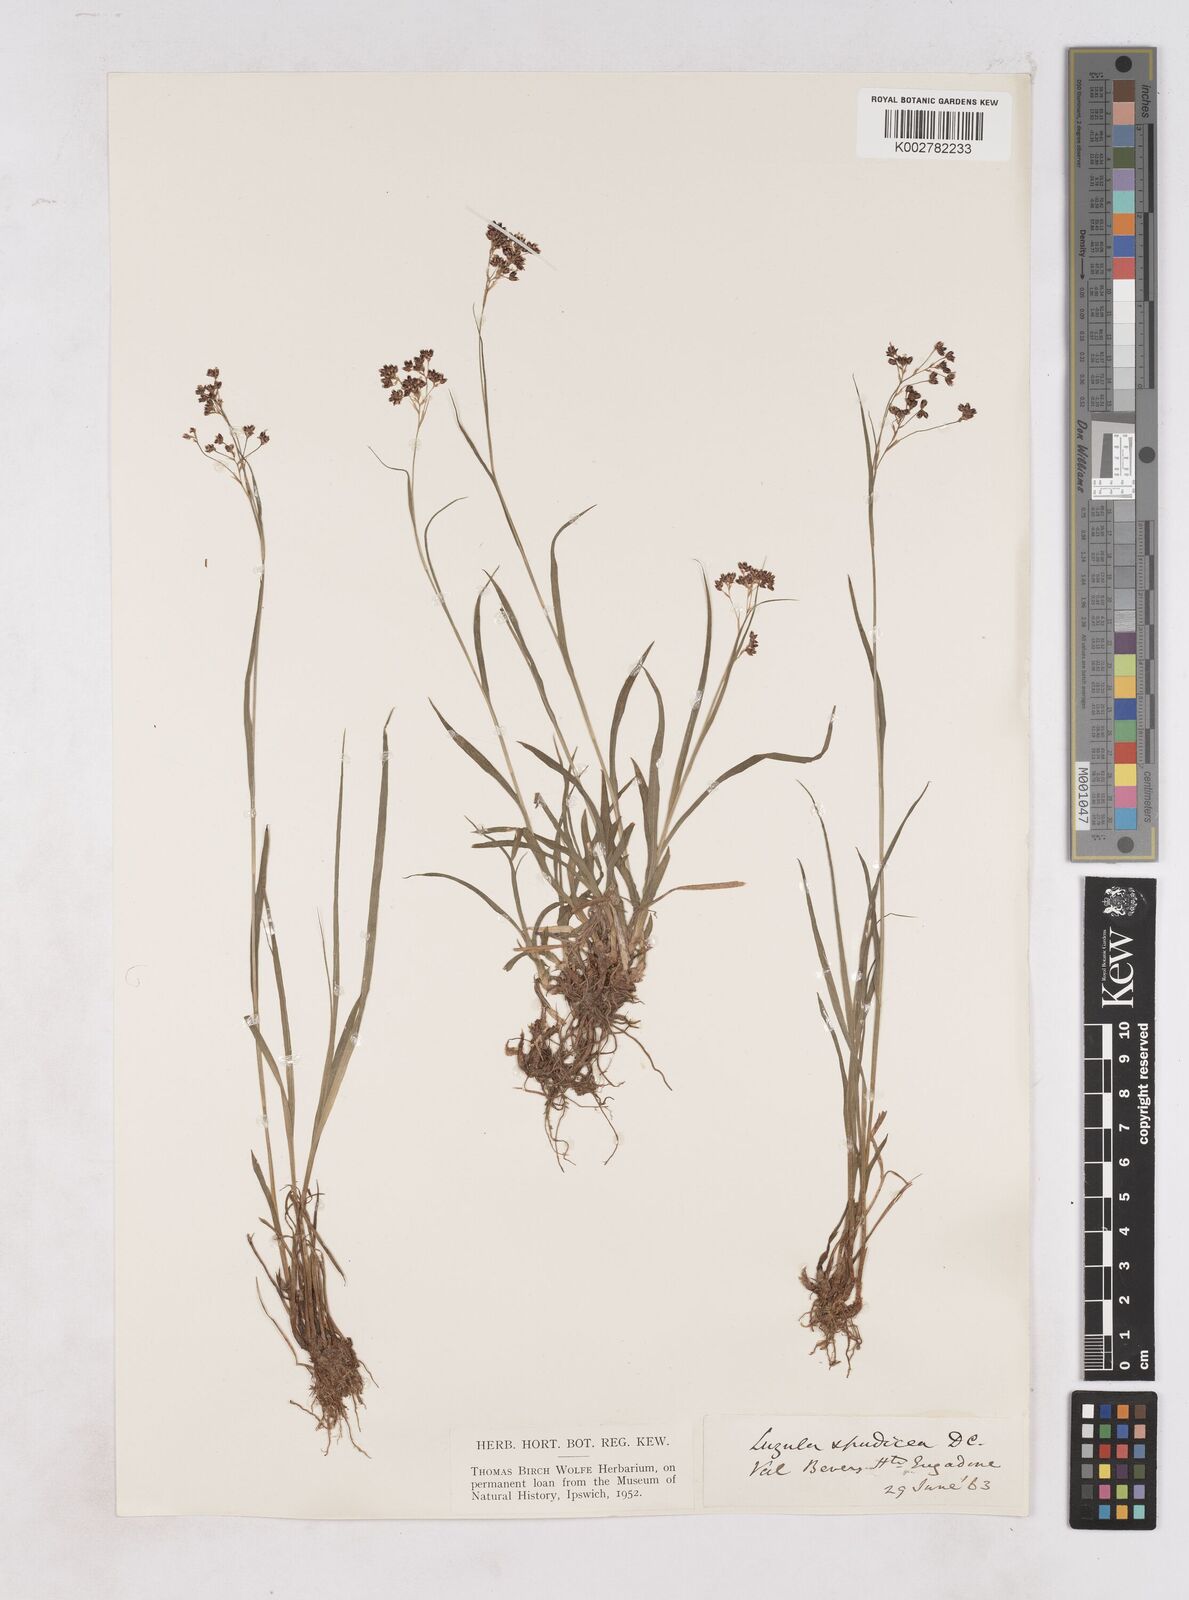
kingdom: Plantae
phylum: Tracheophyta
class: Liliopsida
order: Poales
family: Juncaceae
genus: Luzula
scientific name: Luzula alpinopilosa
